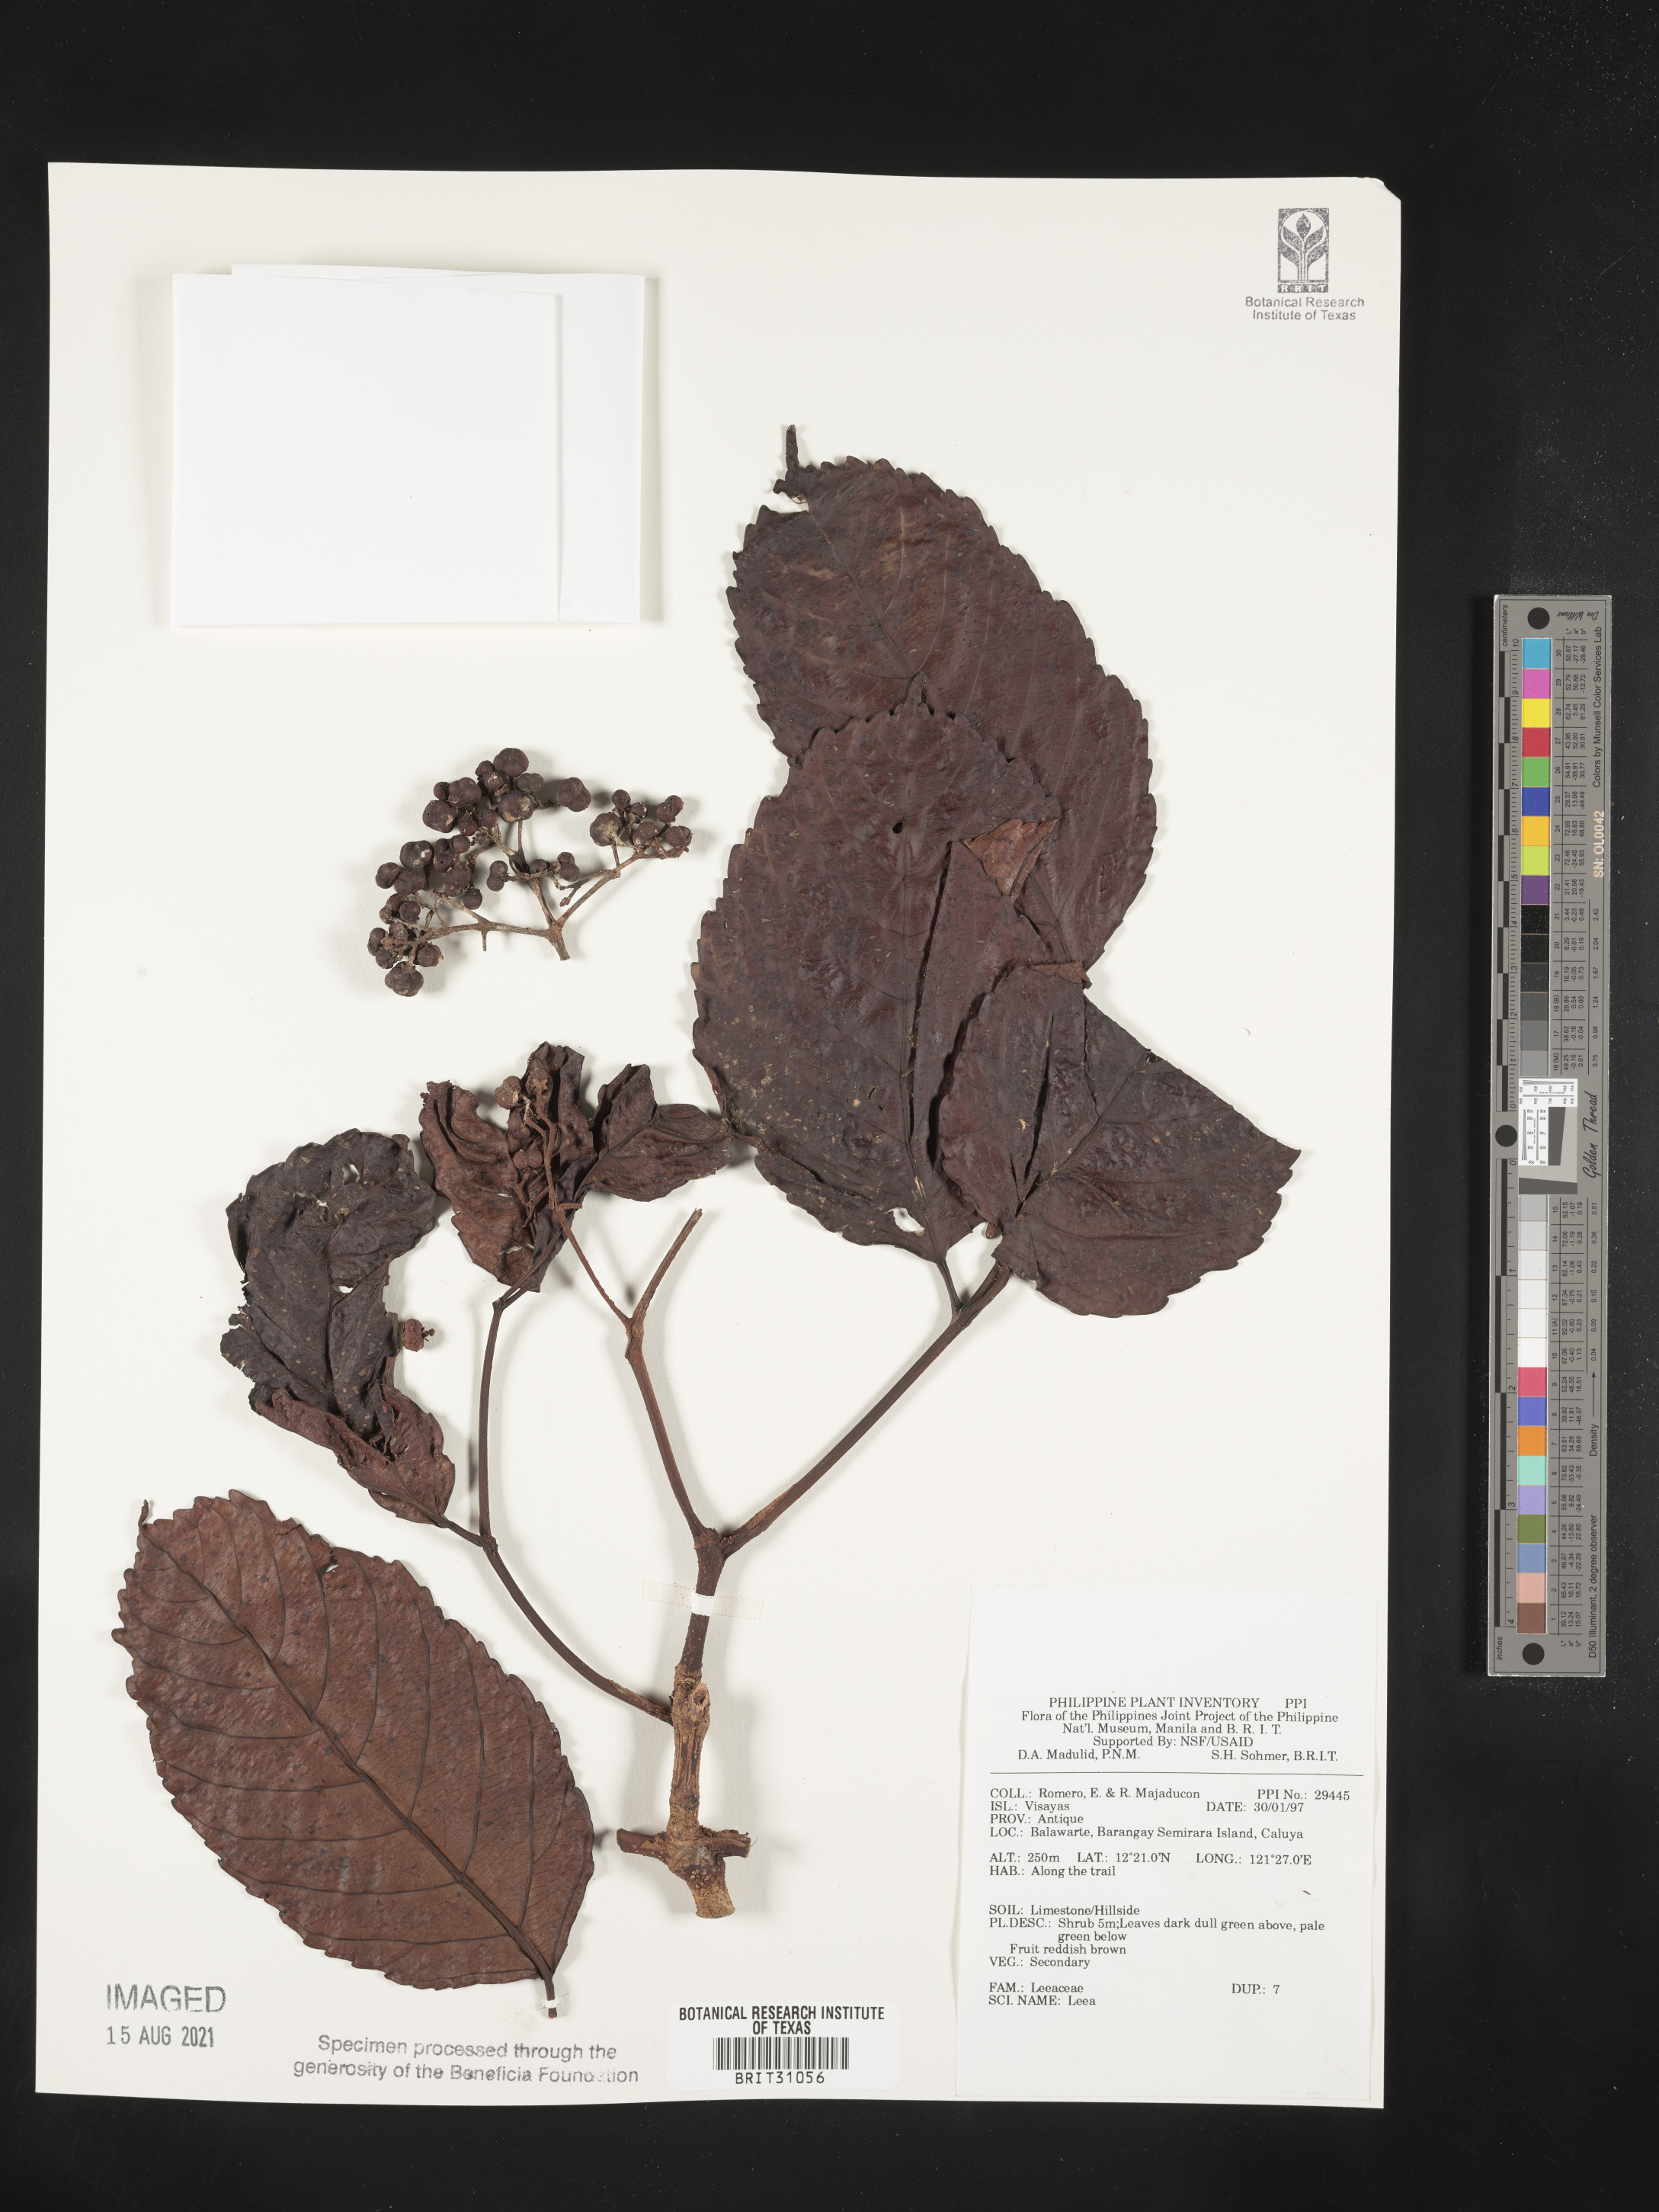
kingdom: Plantae
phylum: Tracheophyta
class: Magnoliopsida
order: Vitales
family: Vitaceae
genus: Leea
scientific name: Leea
